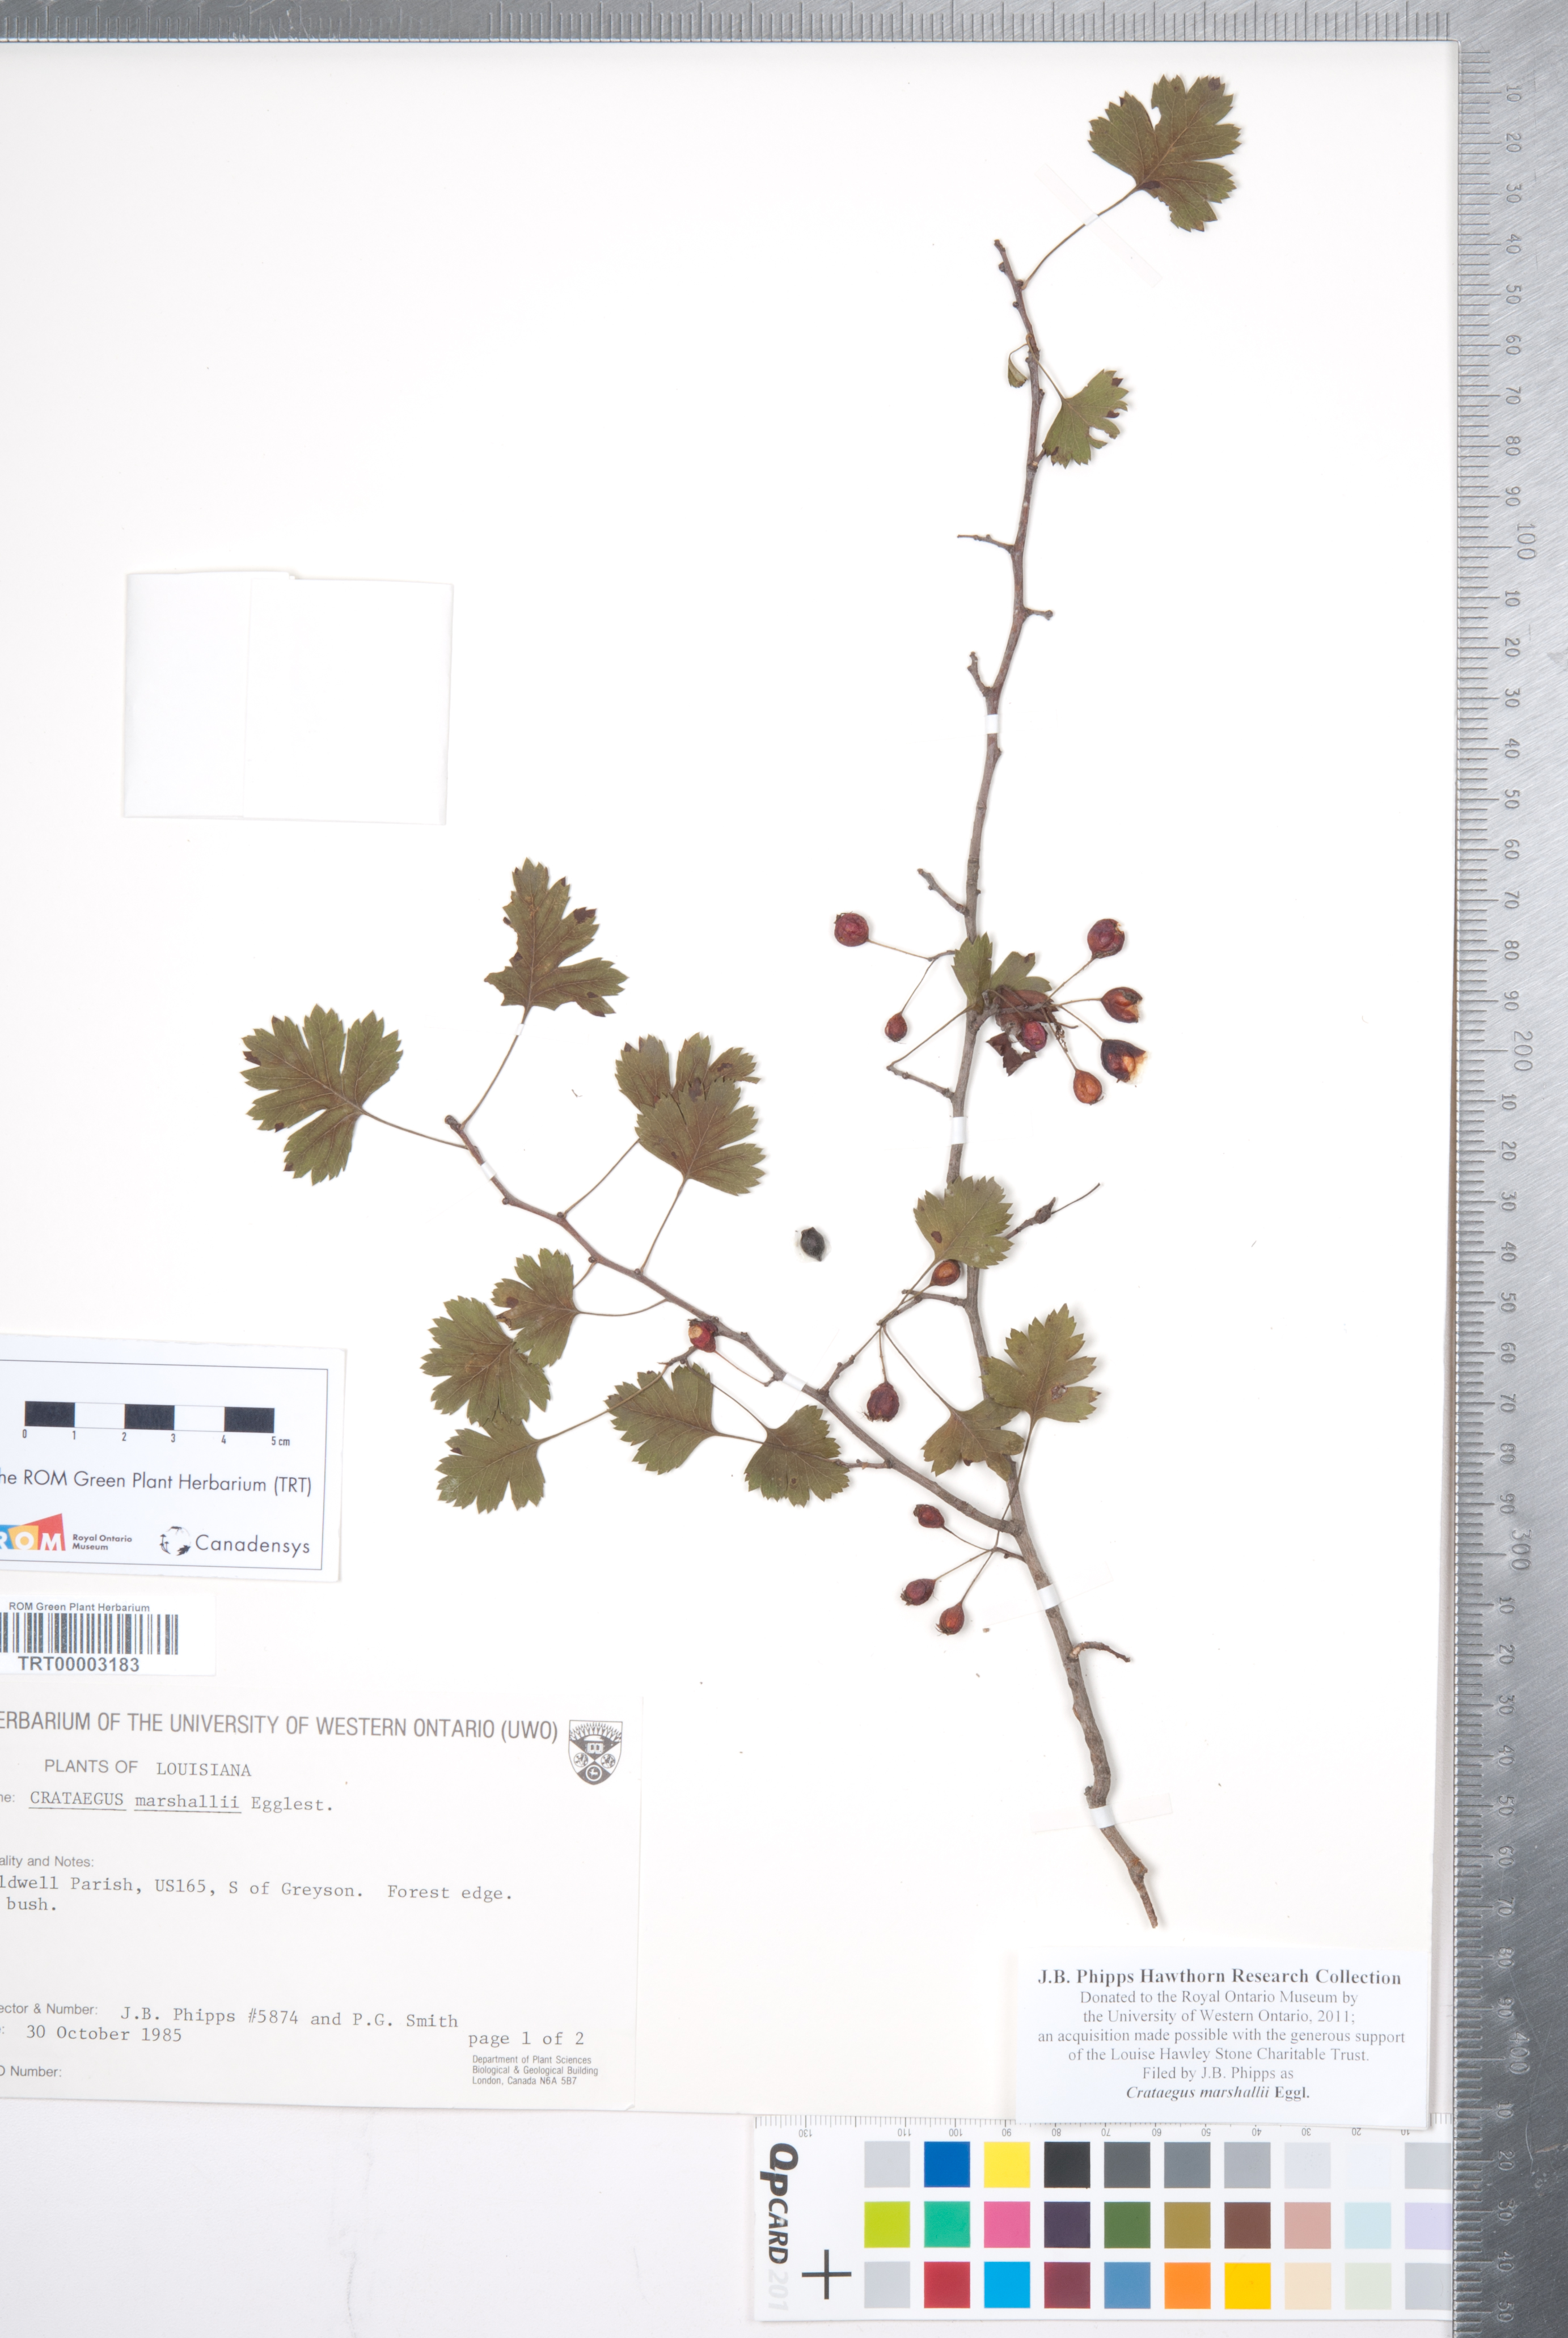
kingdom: Plantae
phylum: Tracheophyta
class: Magnoliopsida
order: Rosales
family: Rosaceae
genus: Crataegus
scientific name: Crataegus marshallii
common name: Parsley-hawthorn
